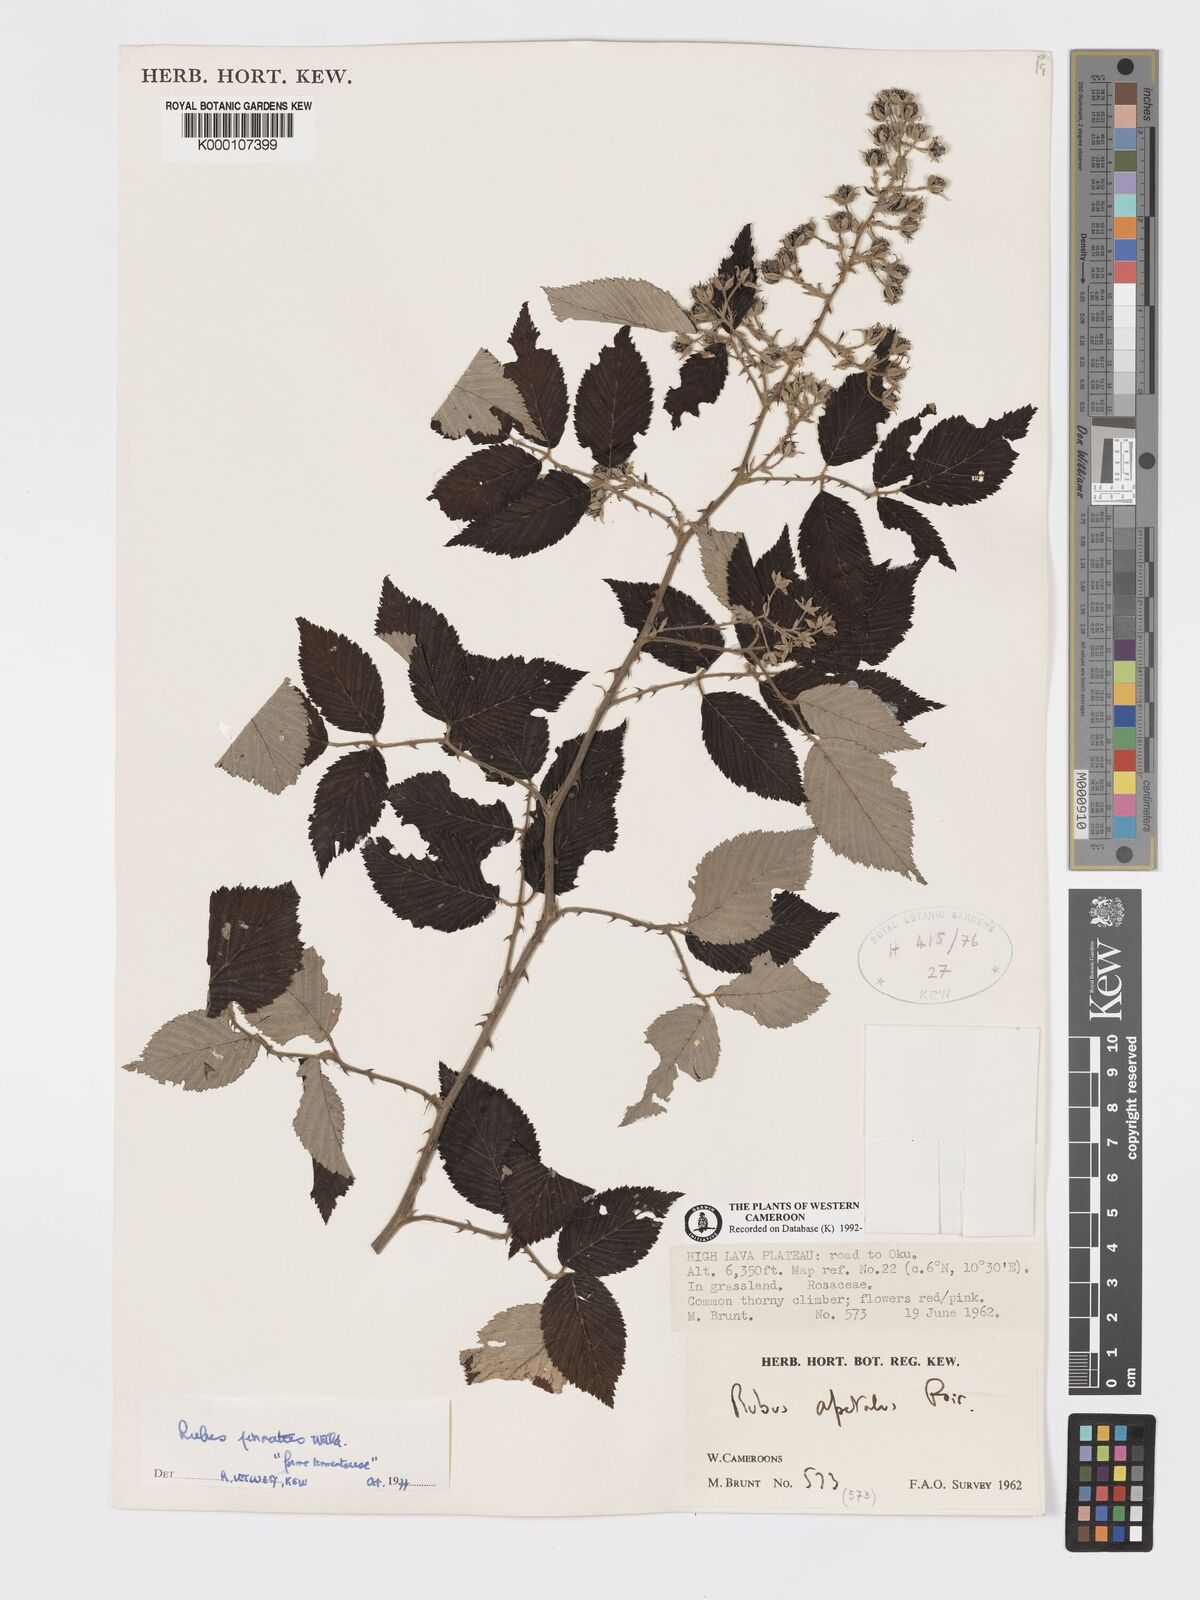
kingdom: Plantae
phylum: Tracheophyta
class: Magnoliopsida
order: Rosales
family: Rosaceae
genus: Rubus
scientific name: Rubus pinnatus
